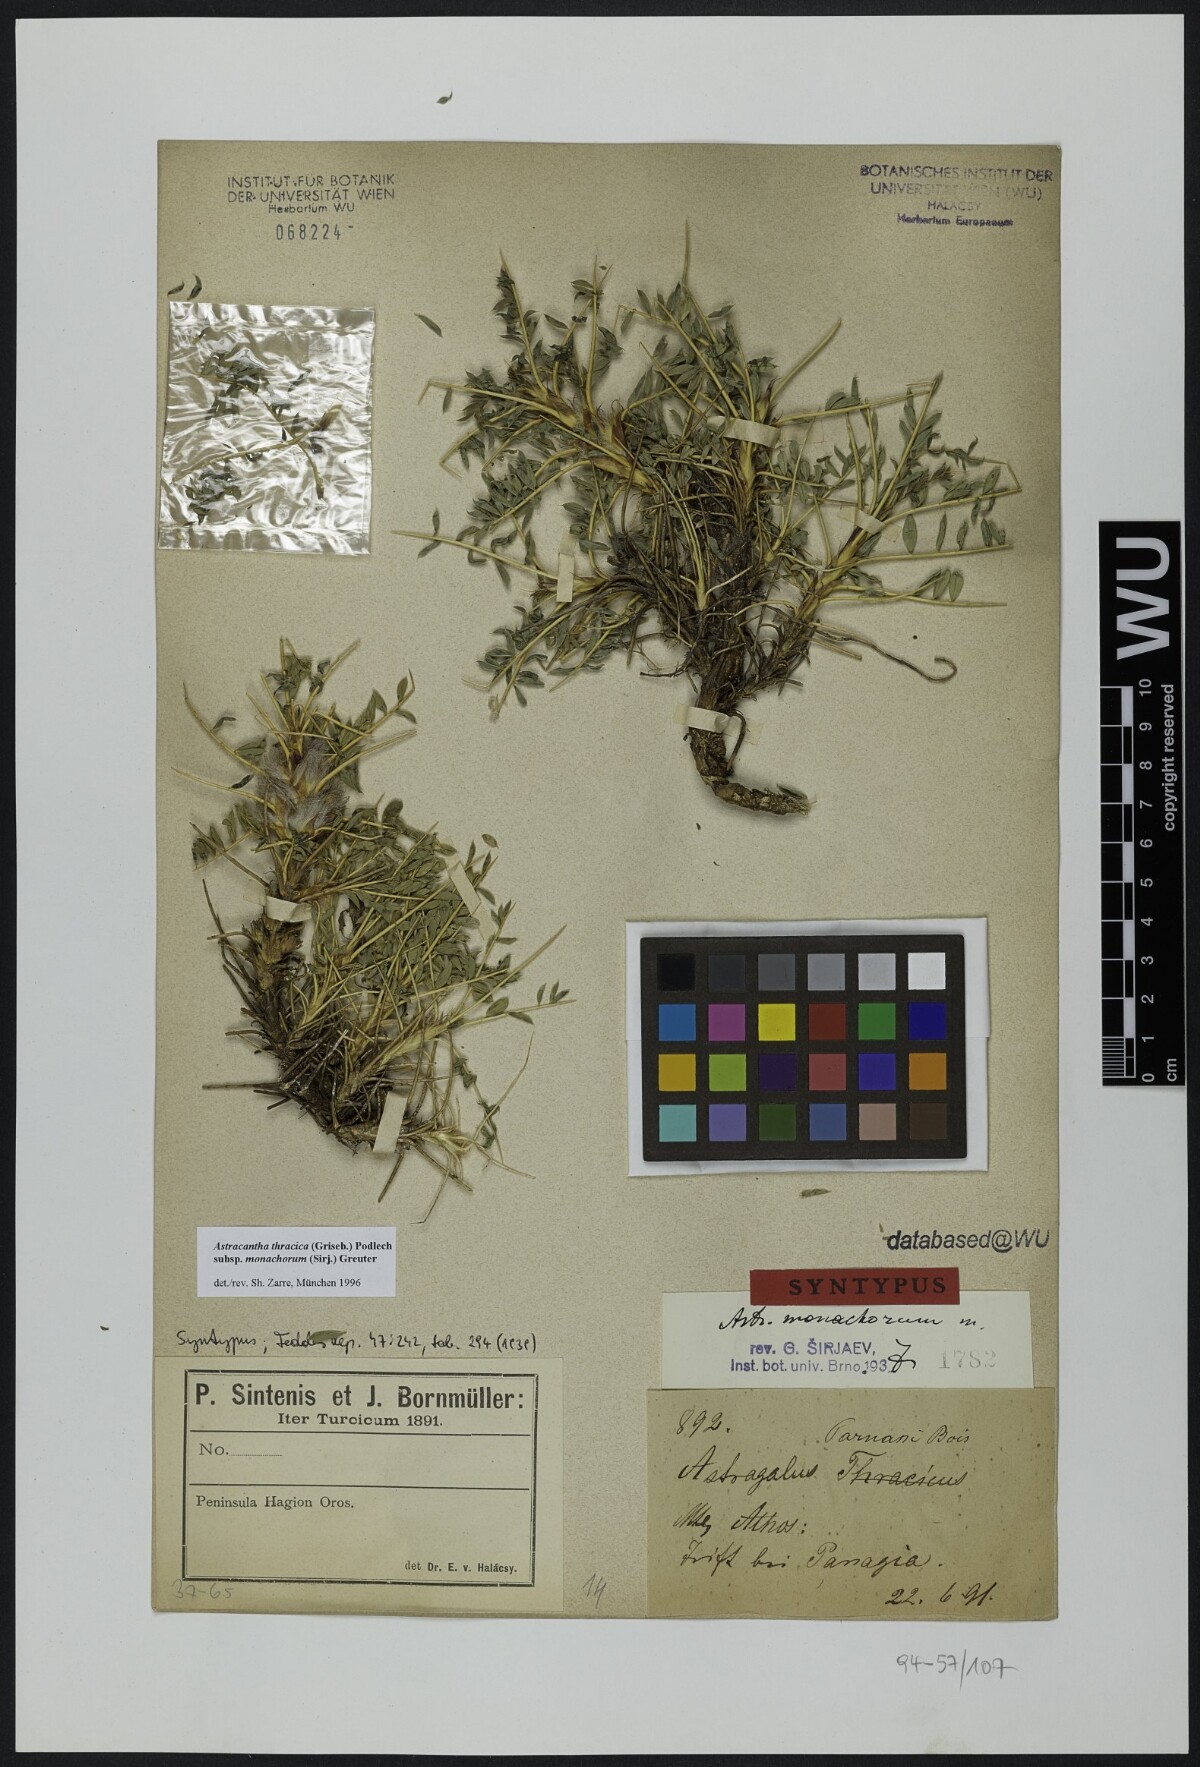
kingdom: Plantae
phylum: Tracheophyta
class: Magnoliopsida
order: Fabales
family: Fabaceae
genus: Astragalus
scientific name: Astragalus thracicus
